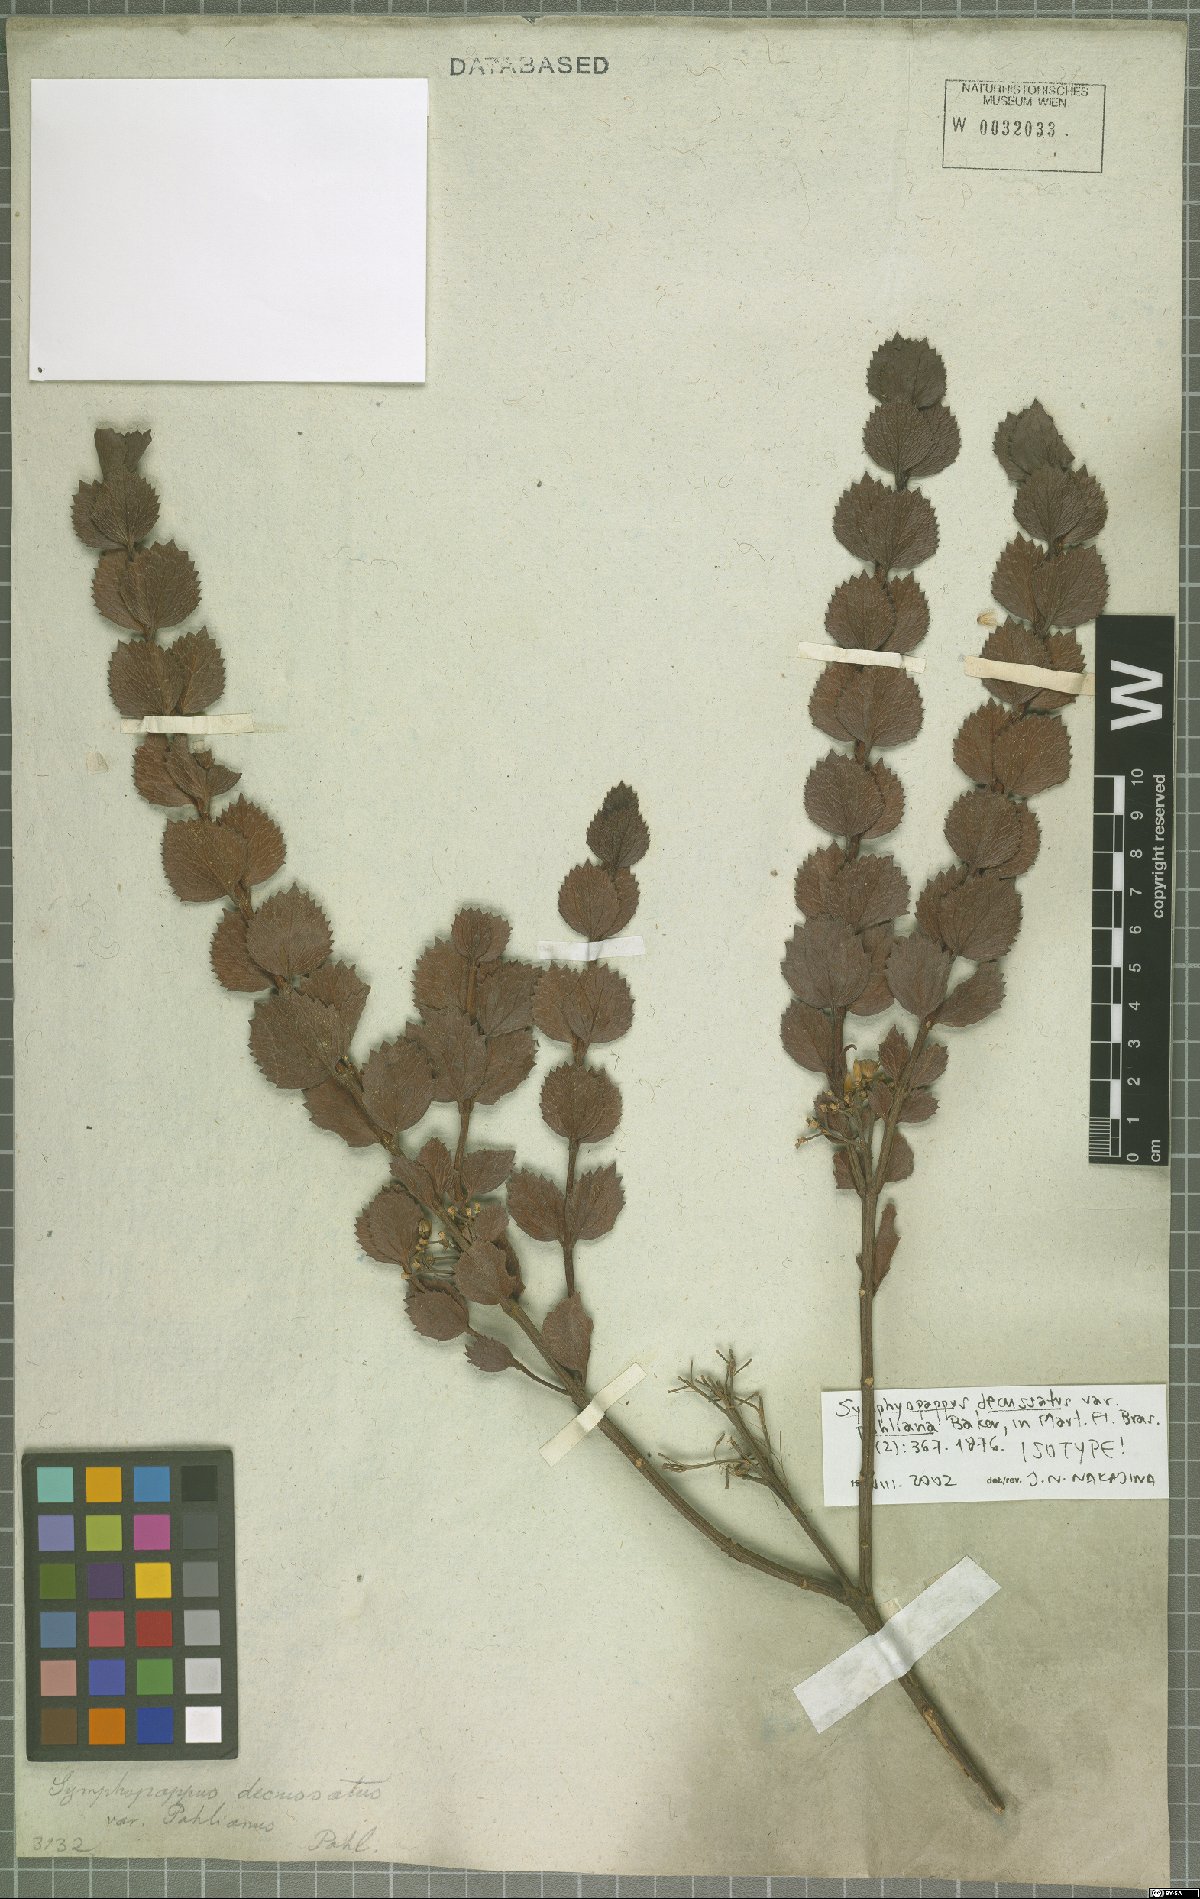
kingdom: Plantae
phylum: Tracheophyta
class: Magnoliopsida
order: Asterales
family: Asteraceae
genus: Symphyopappus
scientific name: Symphyopappus decussatus
